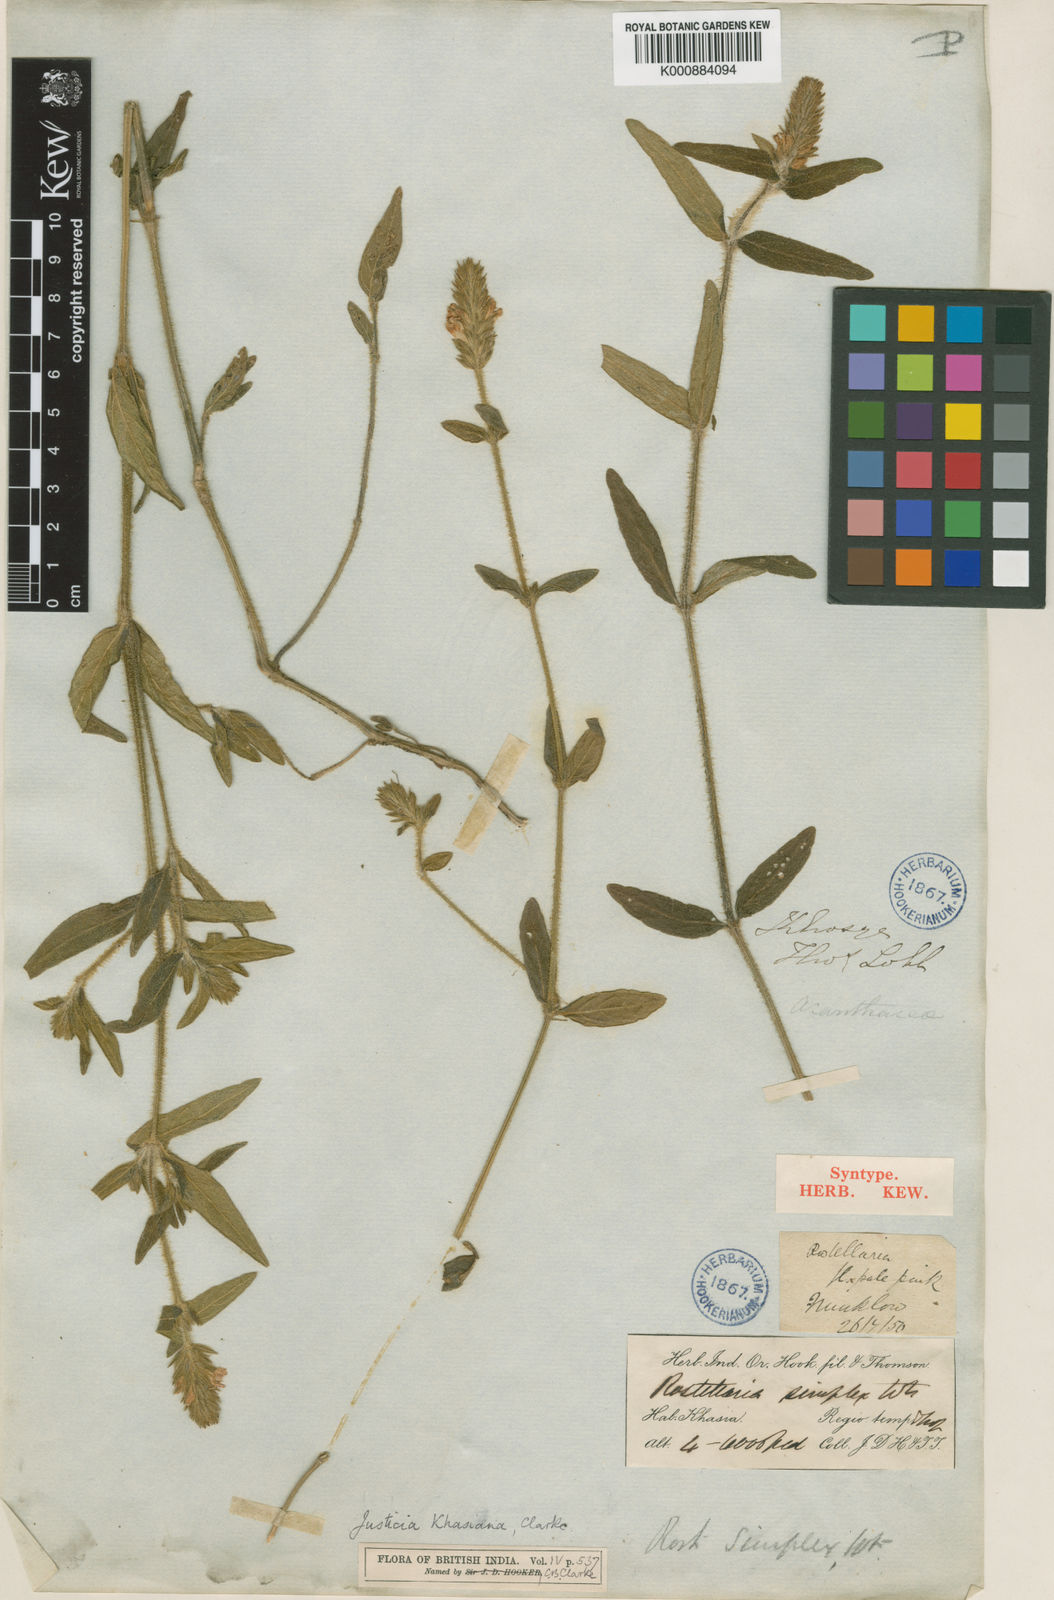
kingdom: Plantae
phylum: Tracheophyta
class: Magnoliopsida
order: Lamiales
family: Acanthaceae
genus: Rostellularia
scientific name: Rostellularia khasiana
